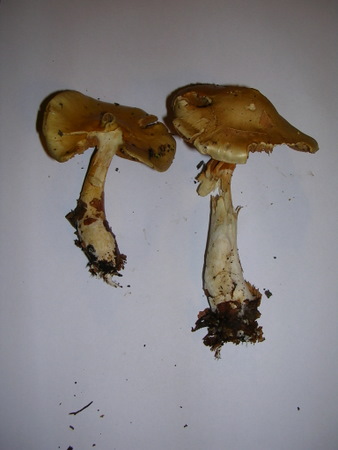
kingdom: Fungi
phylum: Basidiomycota
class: Agaricomycetes
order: Agaricales
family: Cortinariaceae
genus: Cortinarius
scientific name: Cortinarius delibutus
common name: gul slørhat
